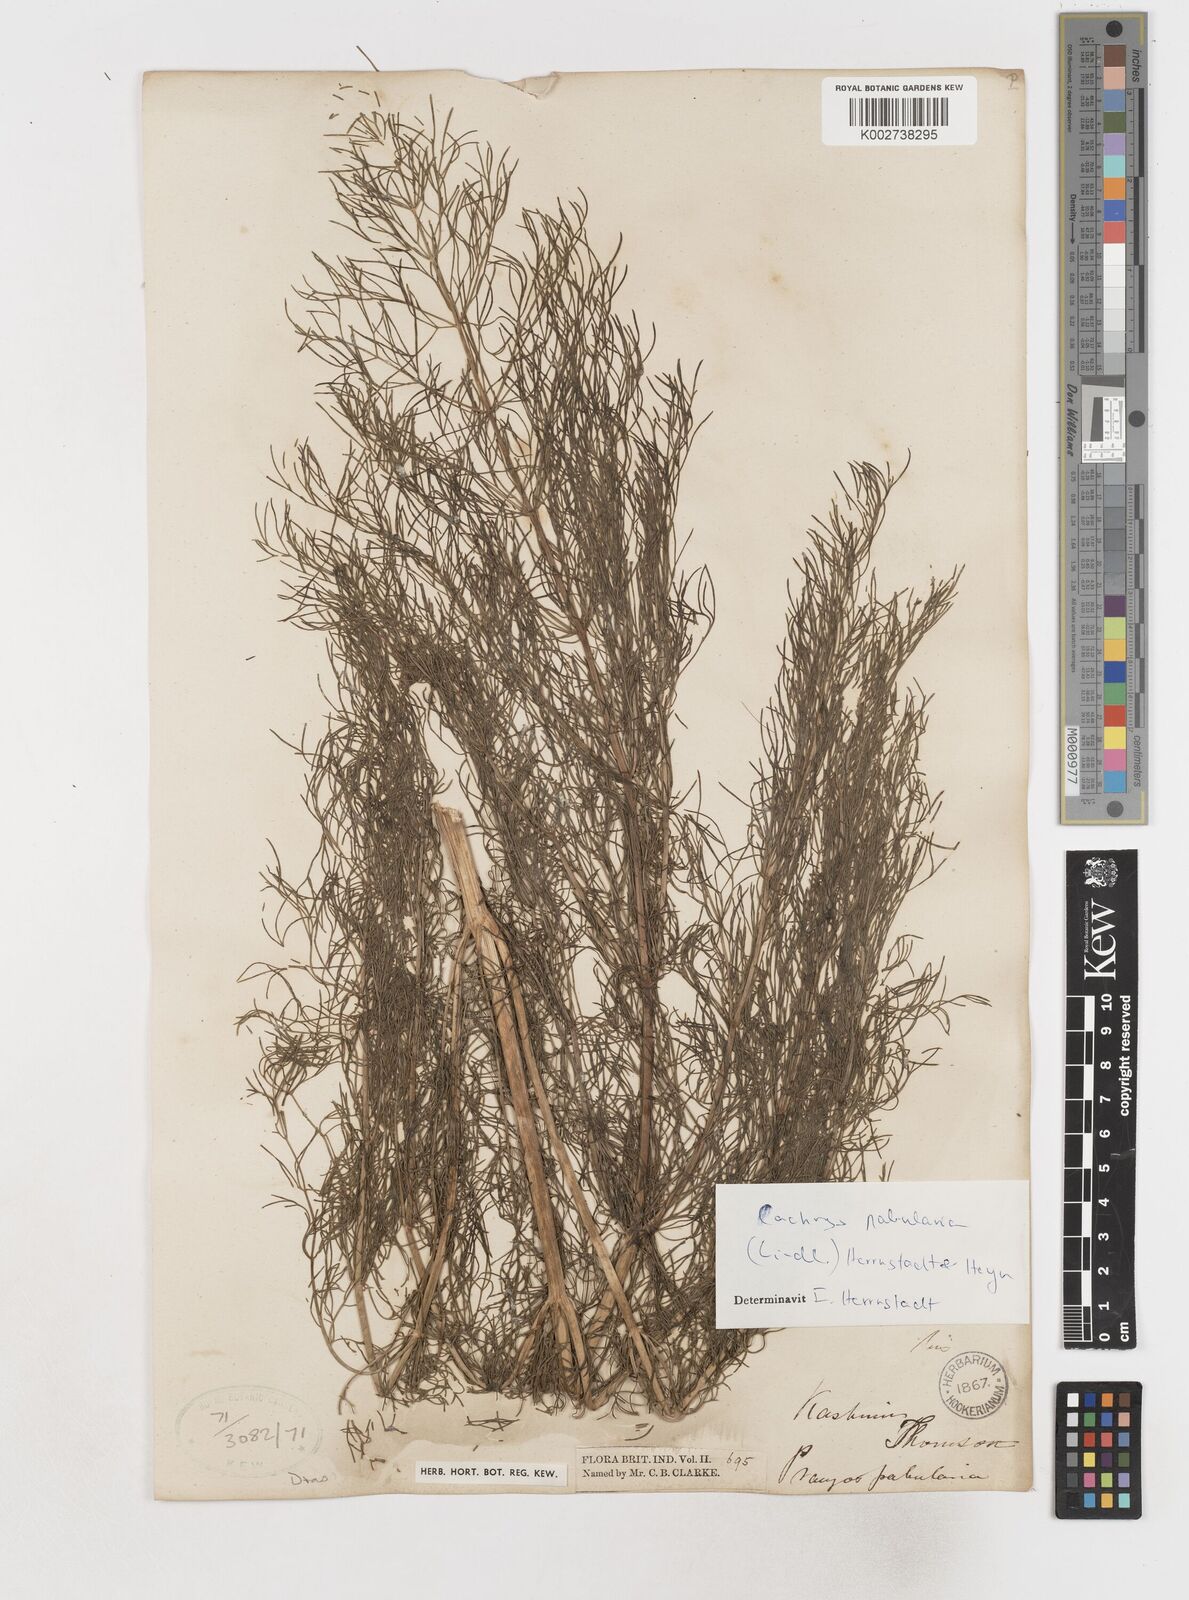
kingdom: Plantae
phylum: Tracheophyta
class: Magnoliopsida
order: Apiales
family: Apiaceae
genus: Prangos
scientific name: Prangos
